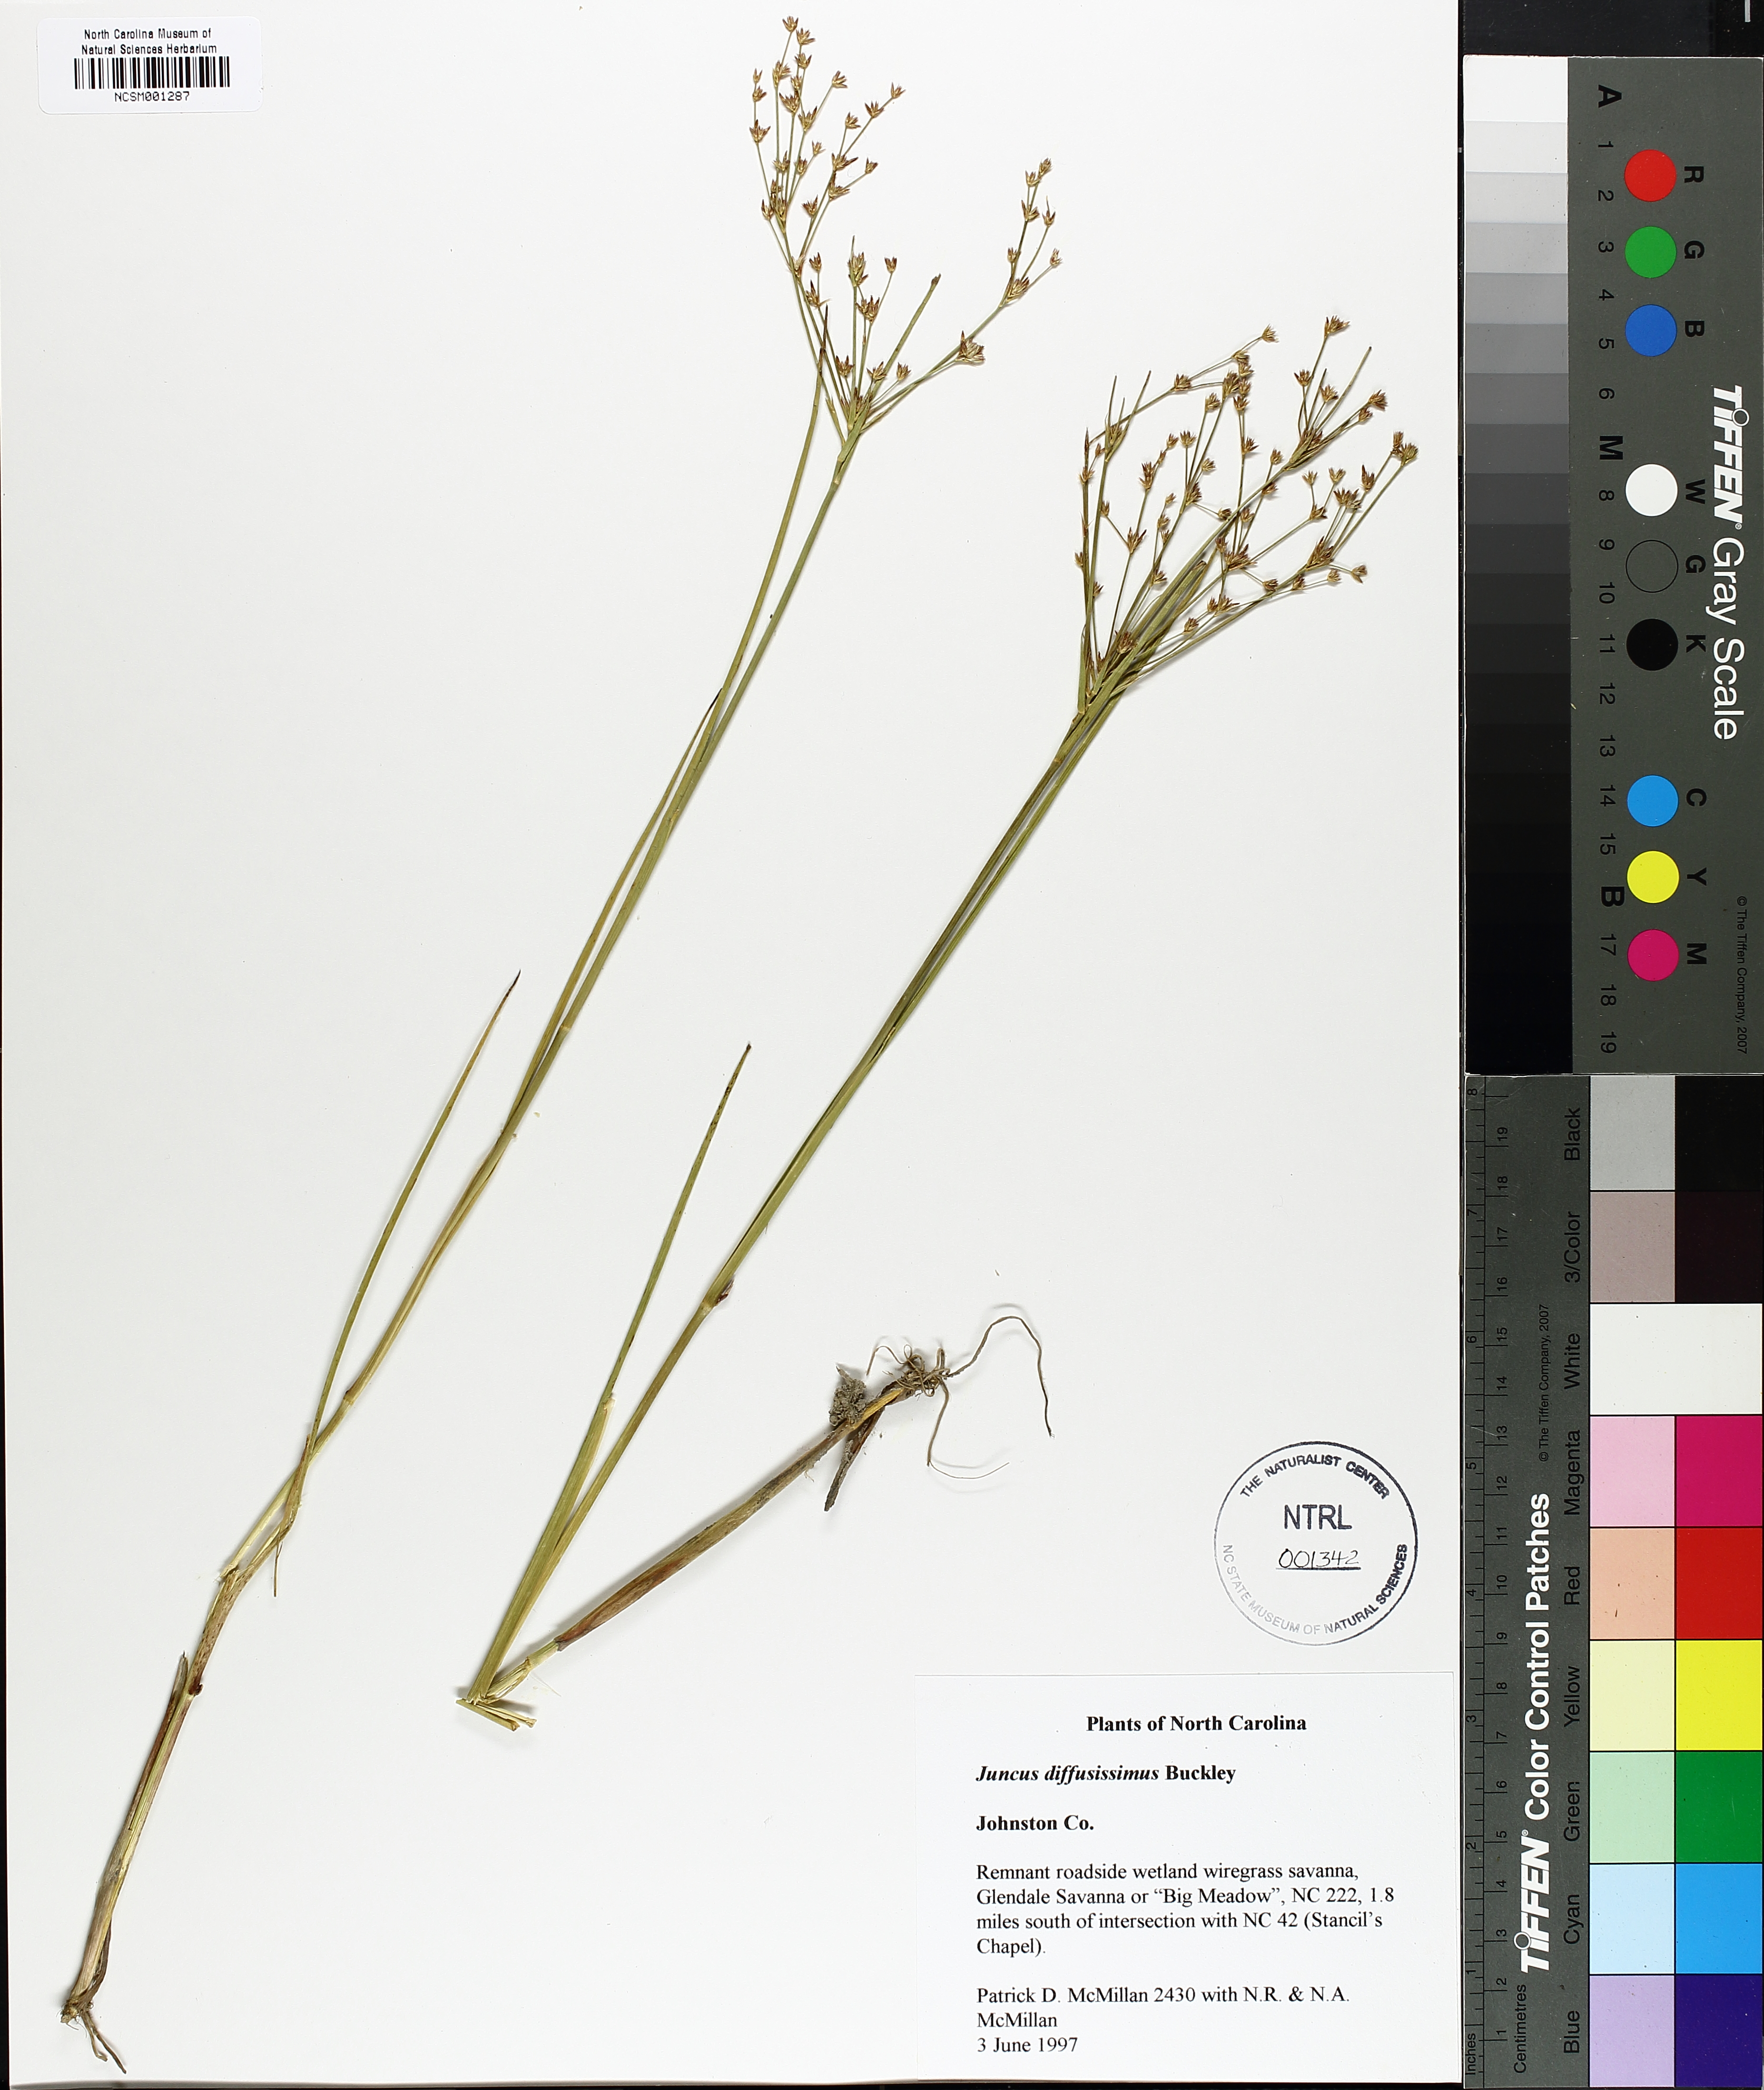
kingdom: Plantae
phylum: Tracheophyta
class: Liliopsida
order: Poales
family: Juncaceae
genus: Juncus
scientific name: Juncus diffusissimus
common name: Slimpod rush
